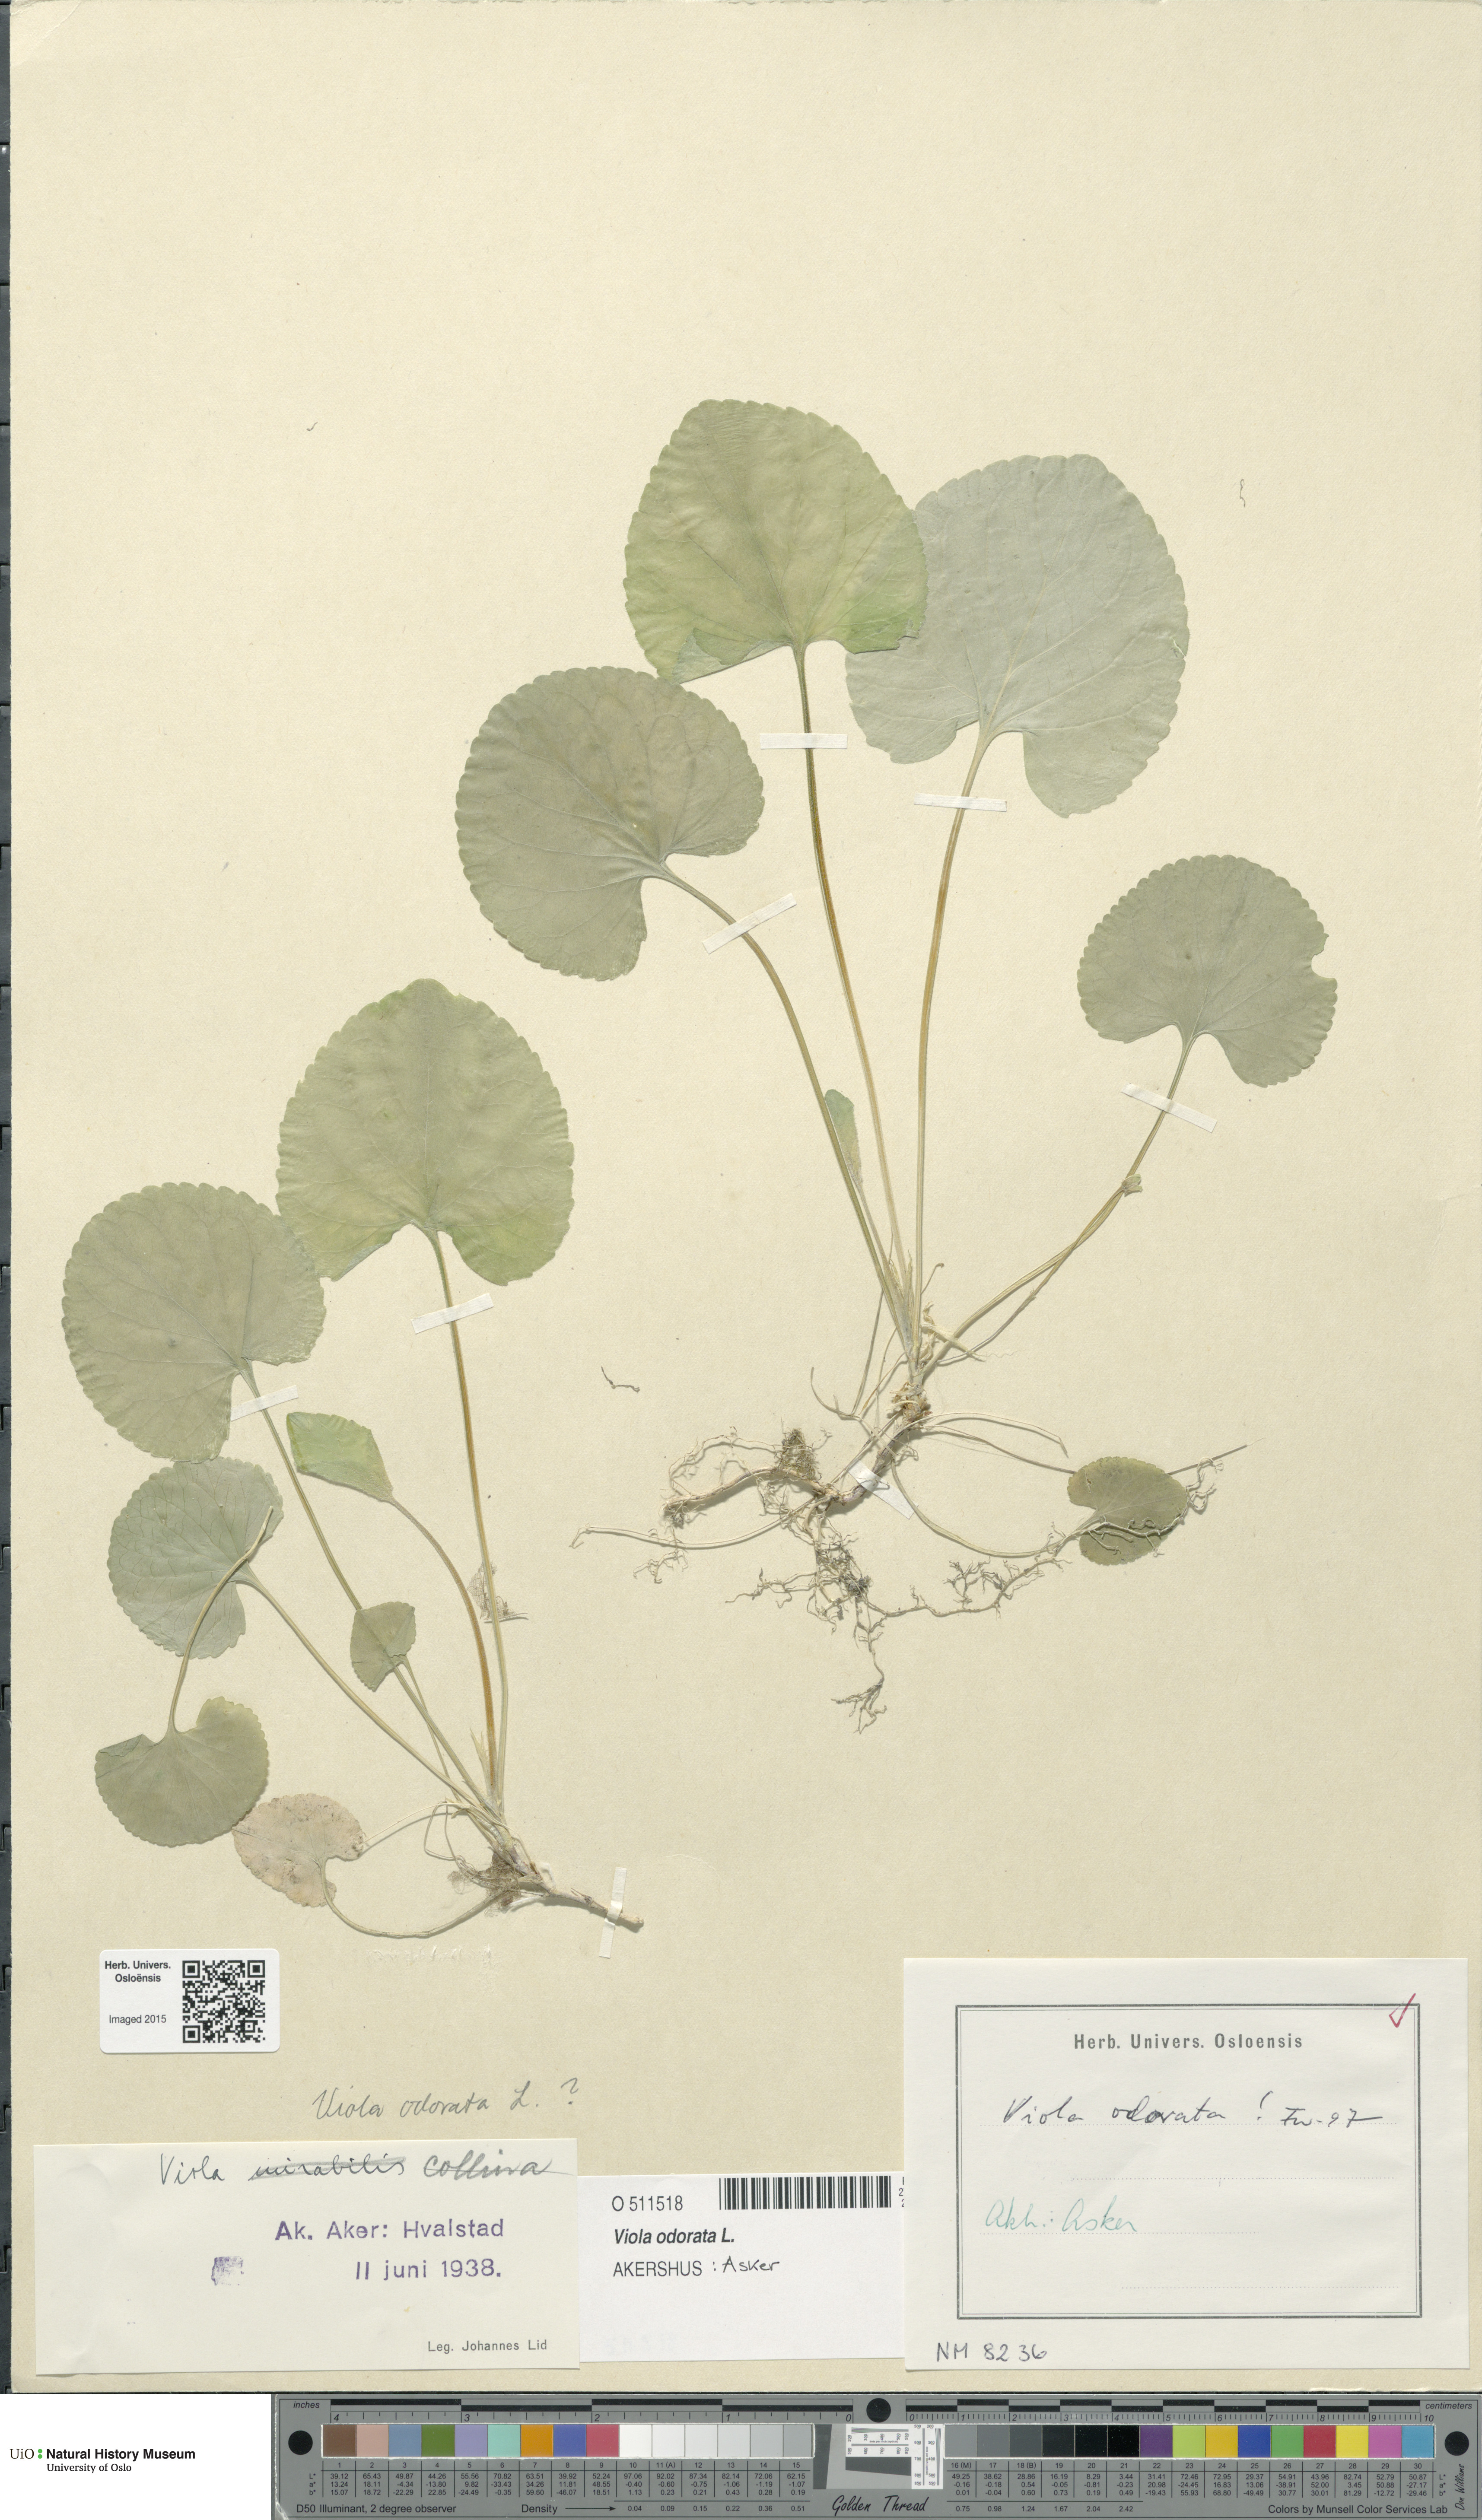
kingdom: Plantae
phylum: Tracheophyta
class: Magnoliopsida
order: Malpighiales
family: Violaceae
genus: Viola
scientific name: Viola odorata
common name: Sweet violet
